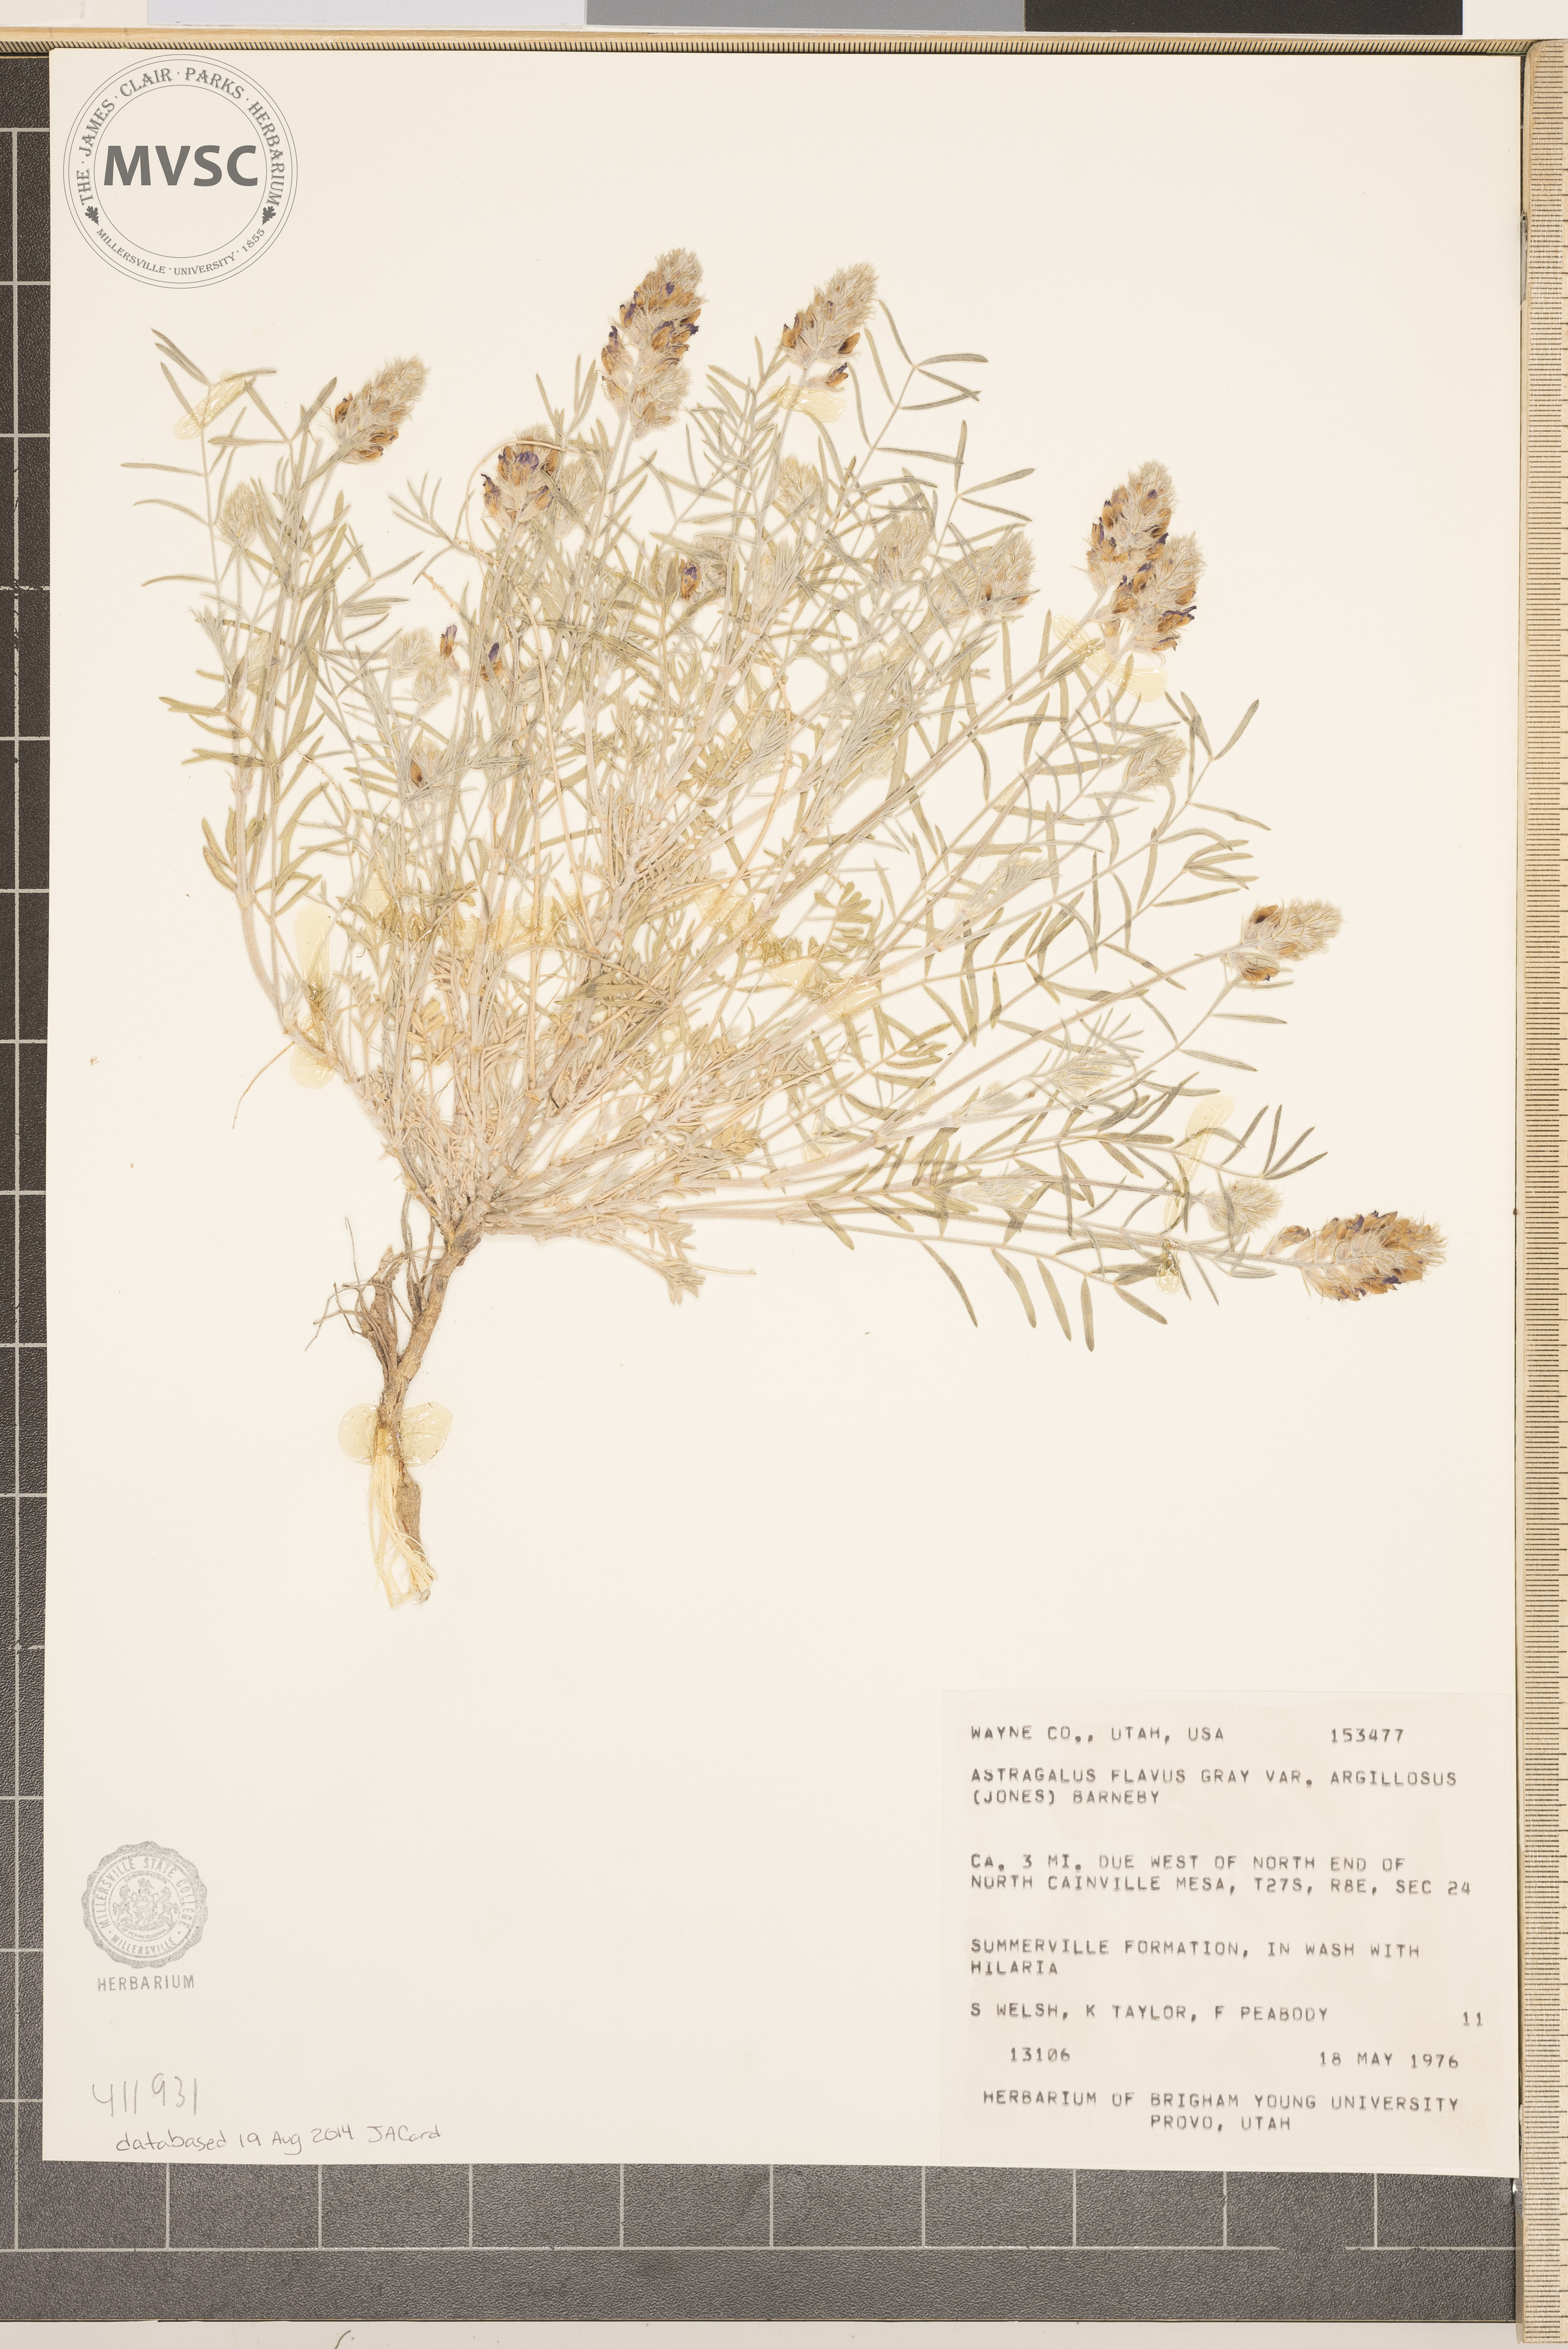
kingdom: Plantae
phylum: Tracheophyta
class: Magnoliopsida
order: Fabales
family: Fabaceae
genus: Astragalus
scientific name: Astragalus flavus
